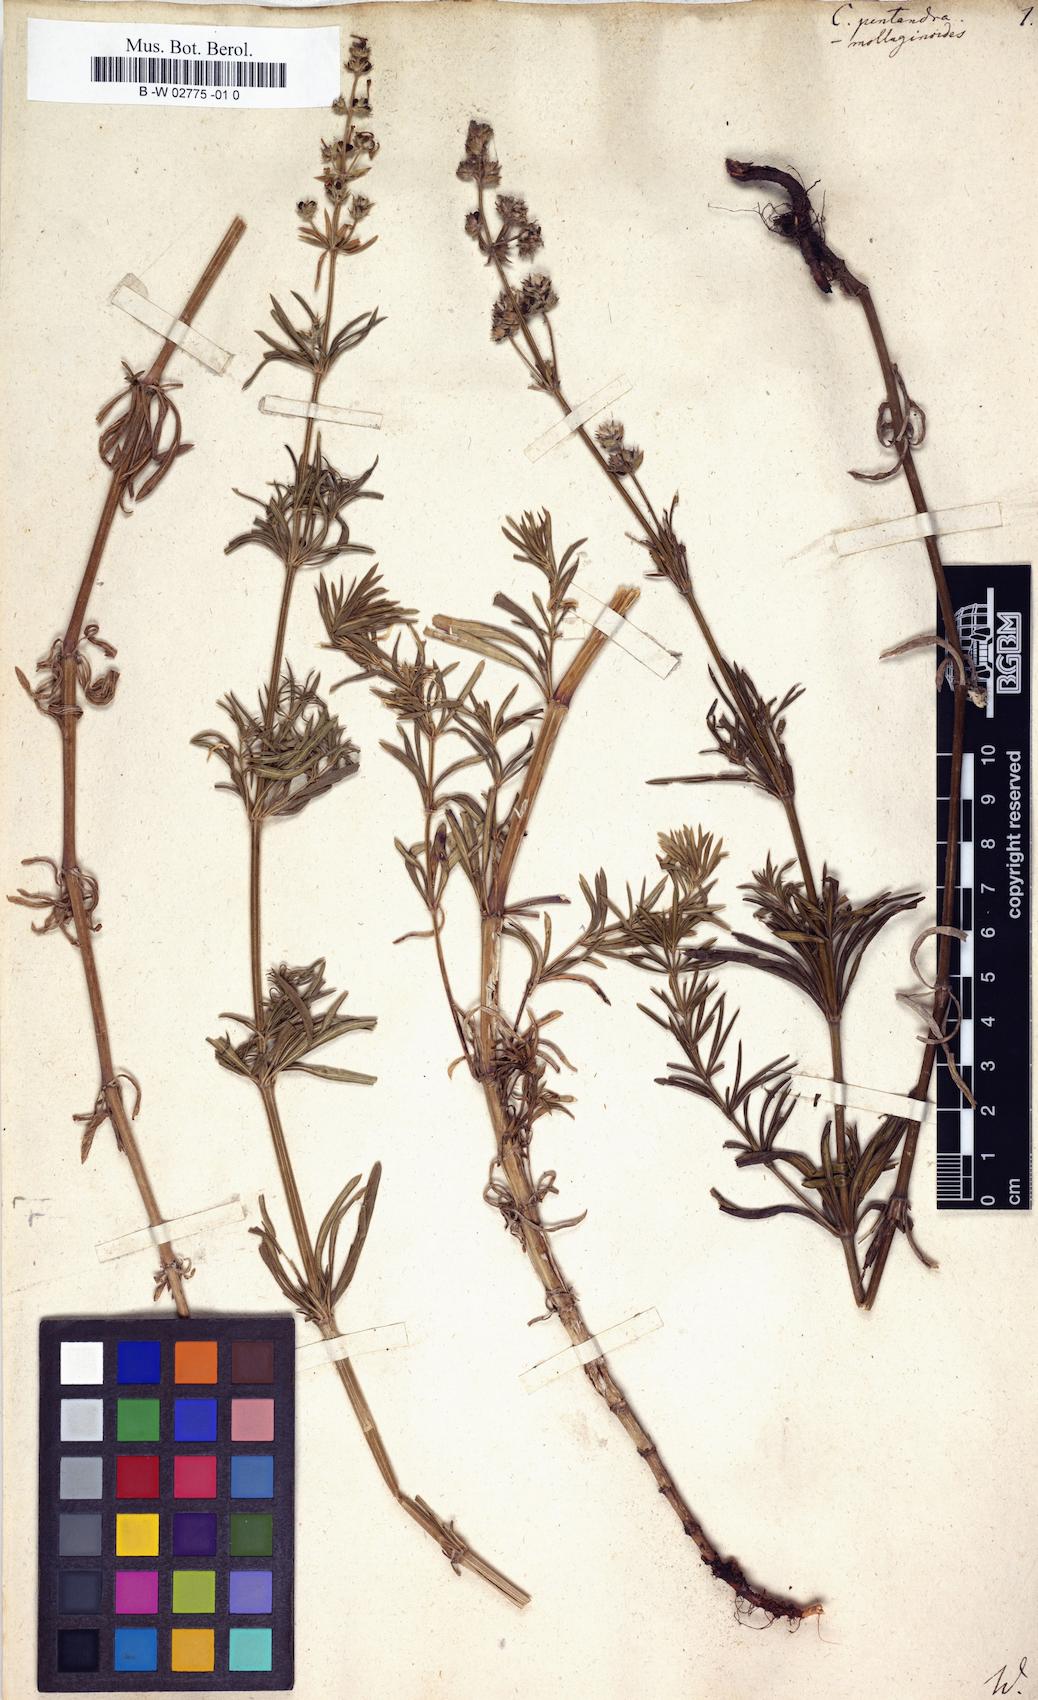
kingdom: Plantae
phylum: Tracheophyta
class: Magnoliopsida
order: Gentianales
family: Rubiaceae
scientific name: Rubiaceae
